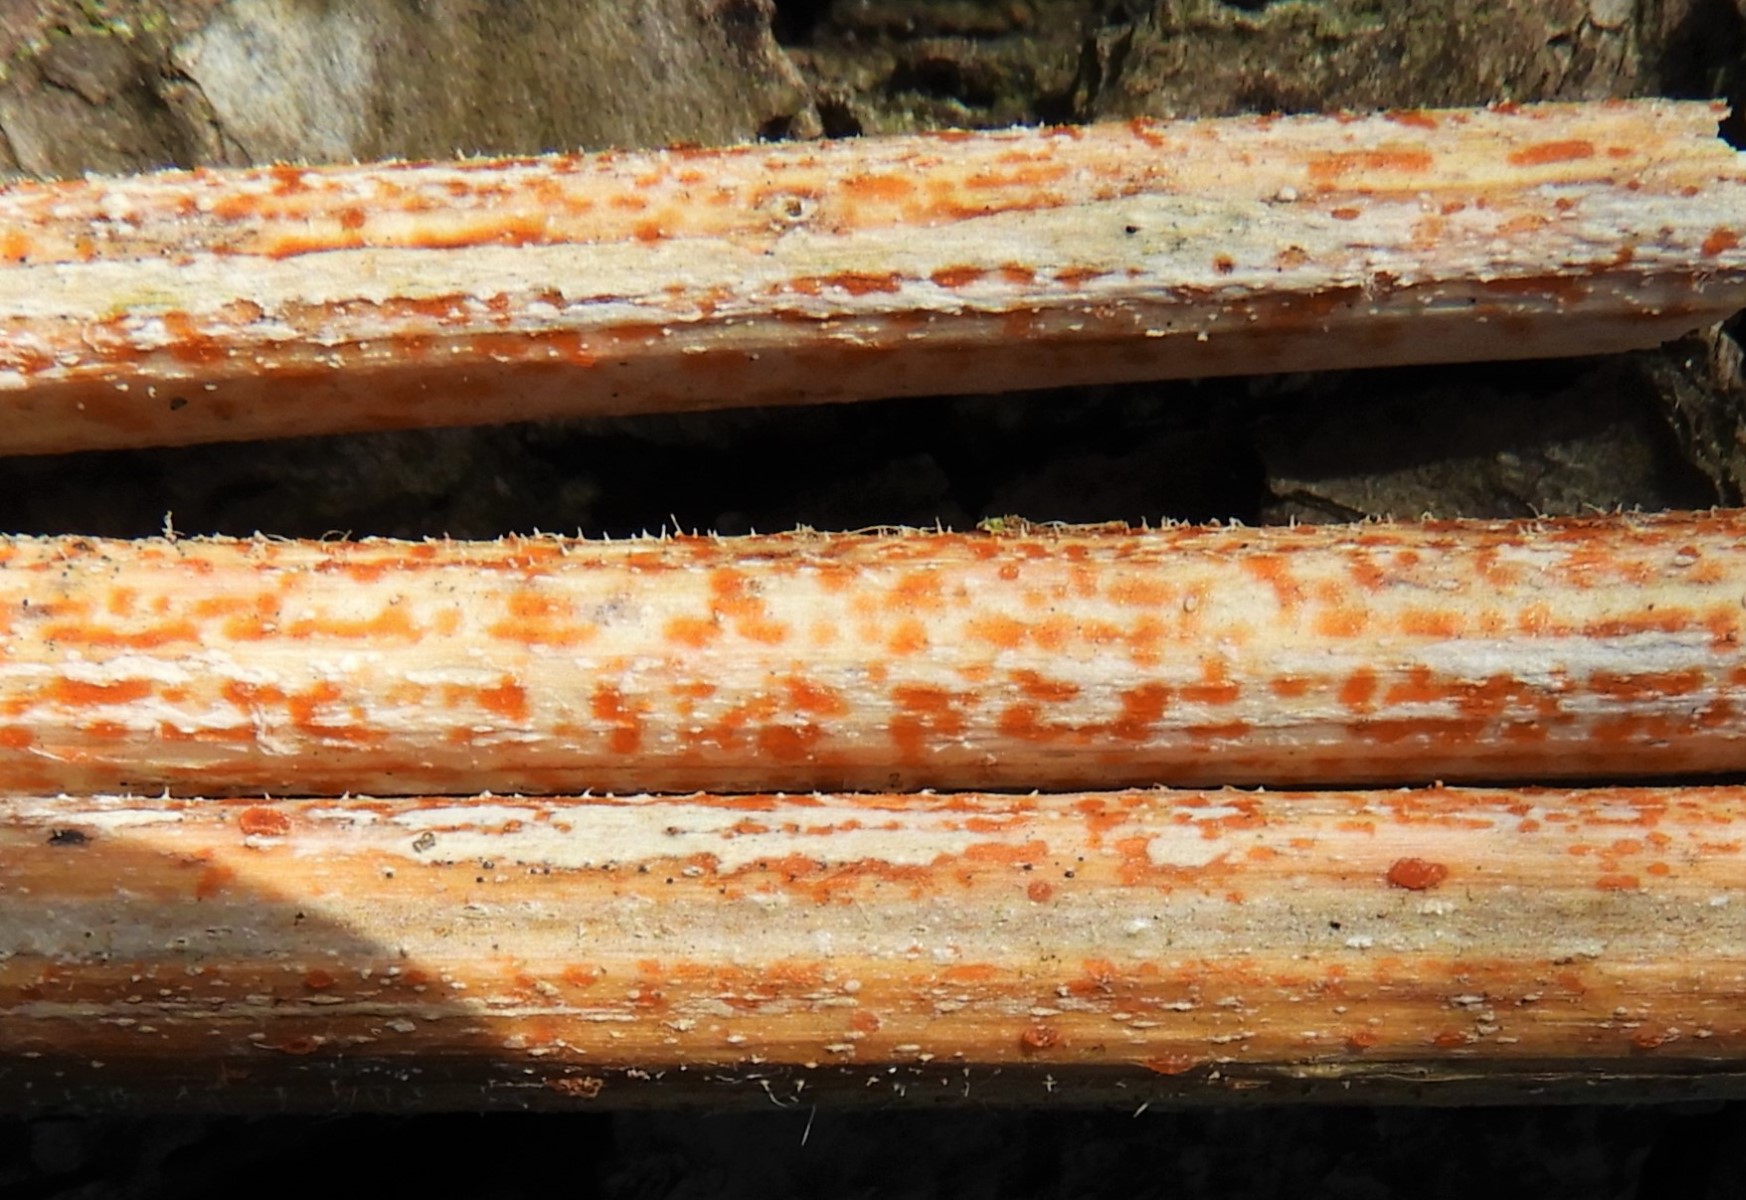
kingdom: Fungi
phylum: Ascomycota
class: Leotiomycetes
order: Helotiales
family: Calloriaceae
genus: Calloria
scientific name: Calloria urticae
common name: nælde-orangeskive
